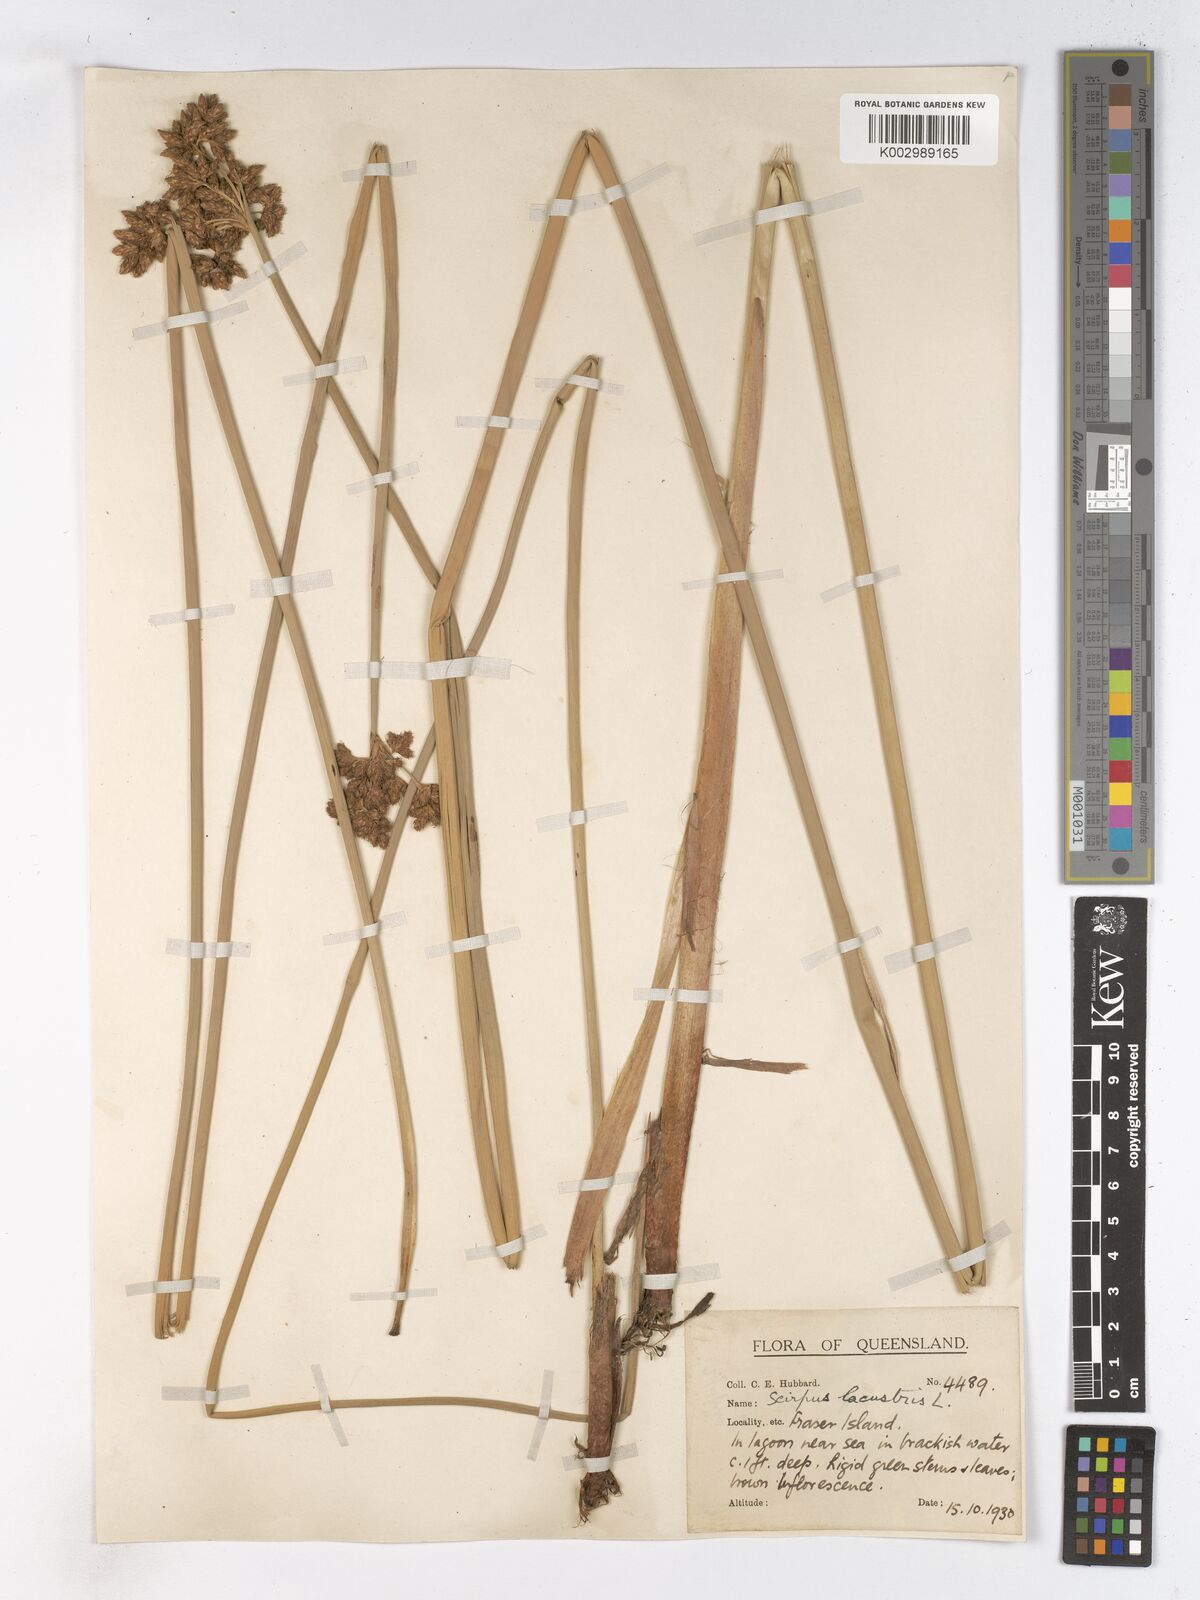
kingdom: Plantae
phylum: Tracheophyta
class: Liliopsida
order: Poales
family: Cyperaceae
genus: Schoenoplectus
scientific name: Schoenoplectus lacustris
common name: Common club-rush
